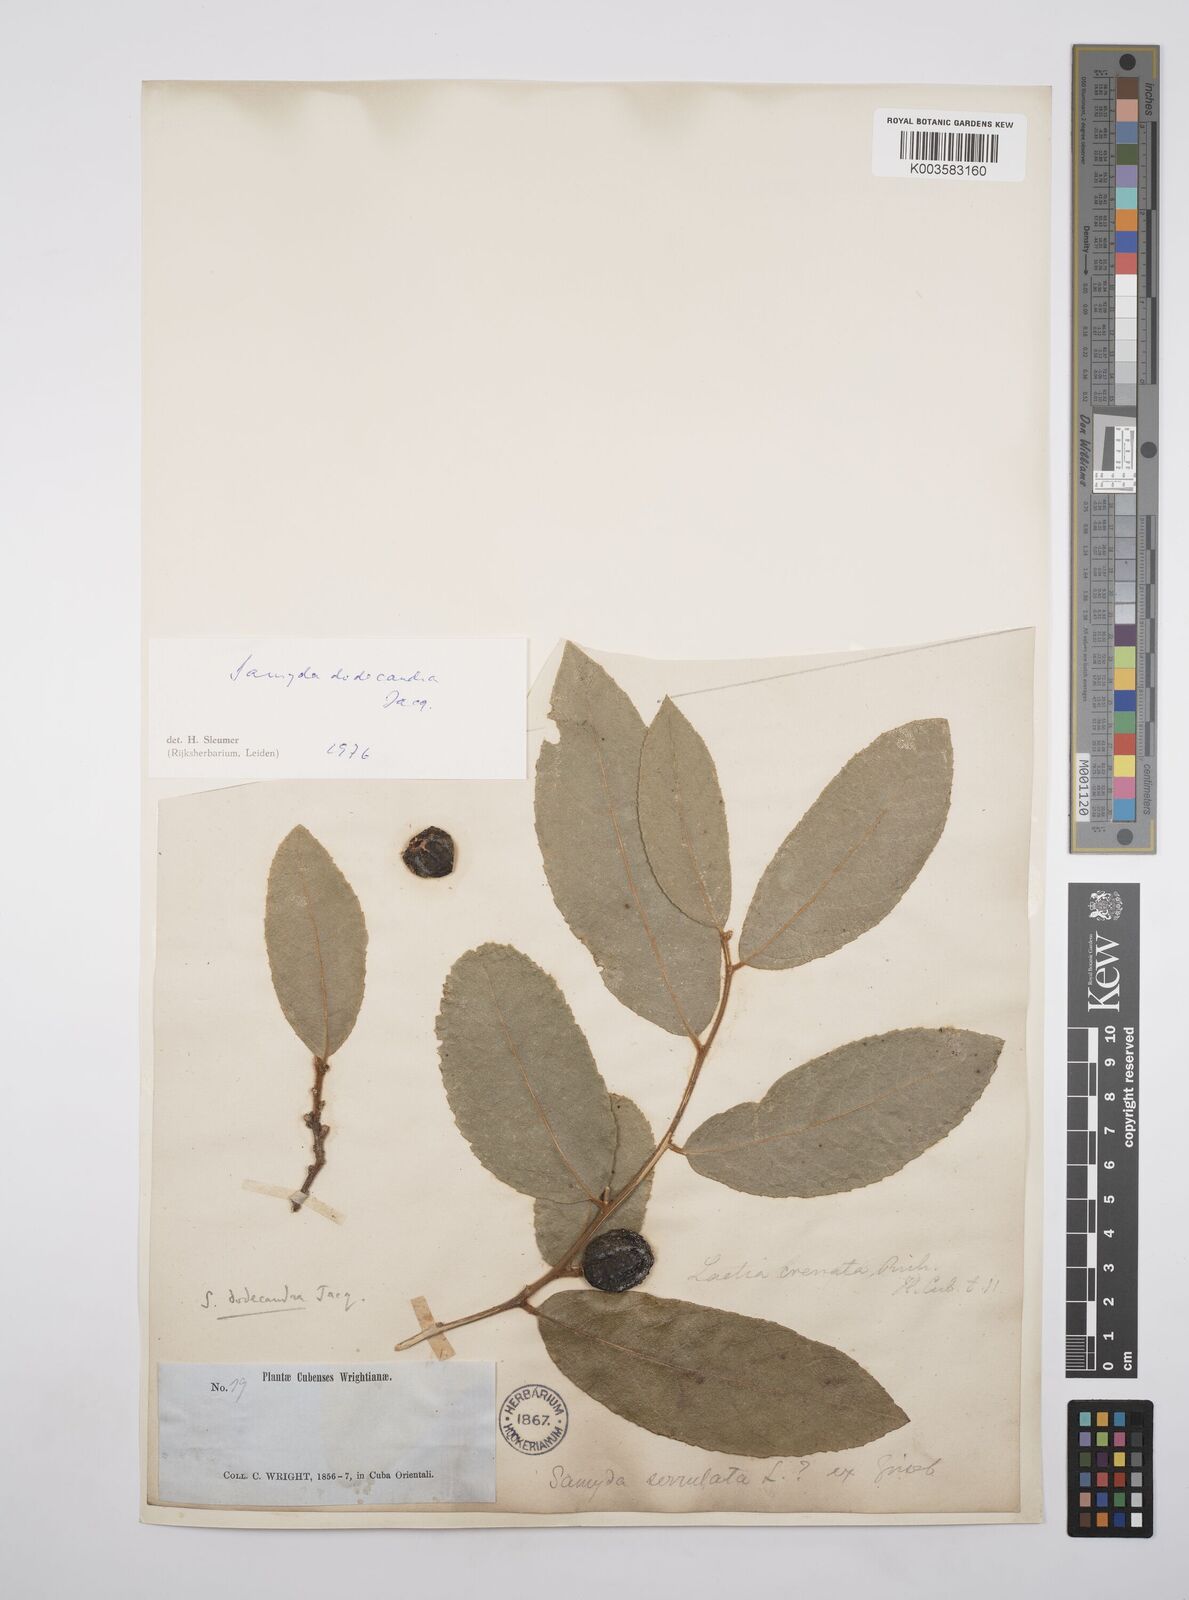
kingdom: Plantae
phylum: Tracheophyta
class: Magnoliopsida
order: Malpighiales
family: Salicaceae
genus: Casearia
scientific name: Casearia dodecandra
